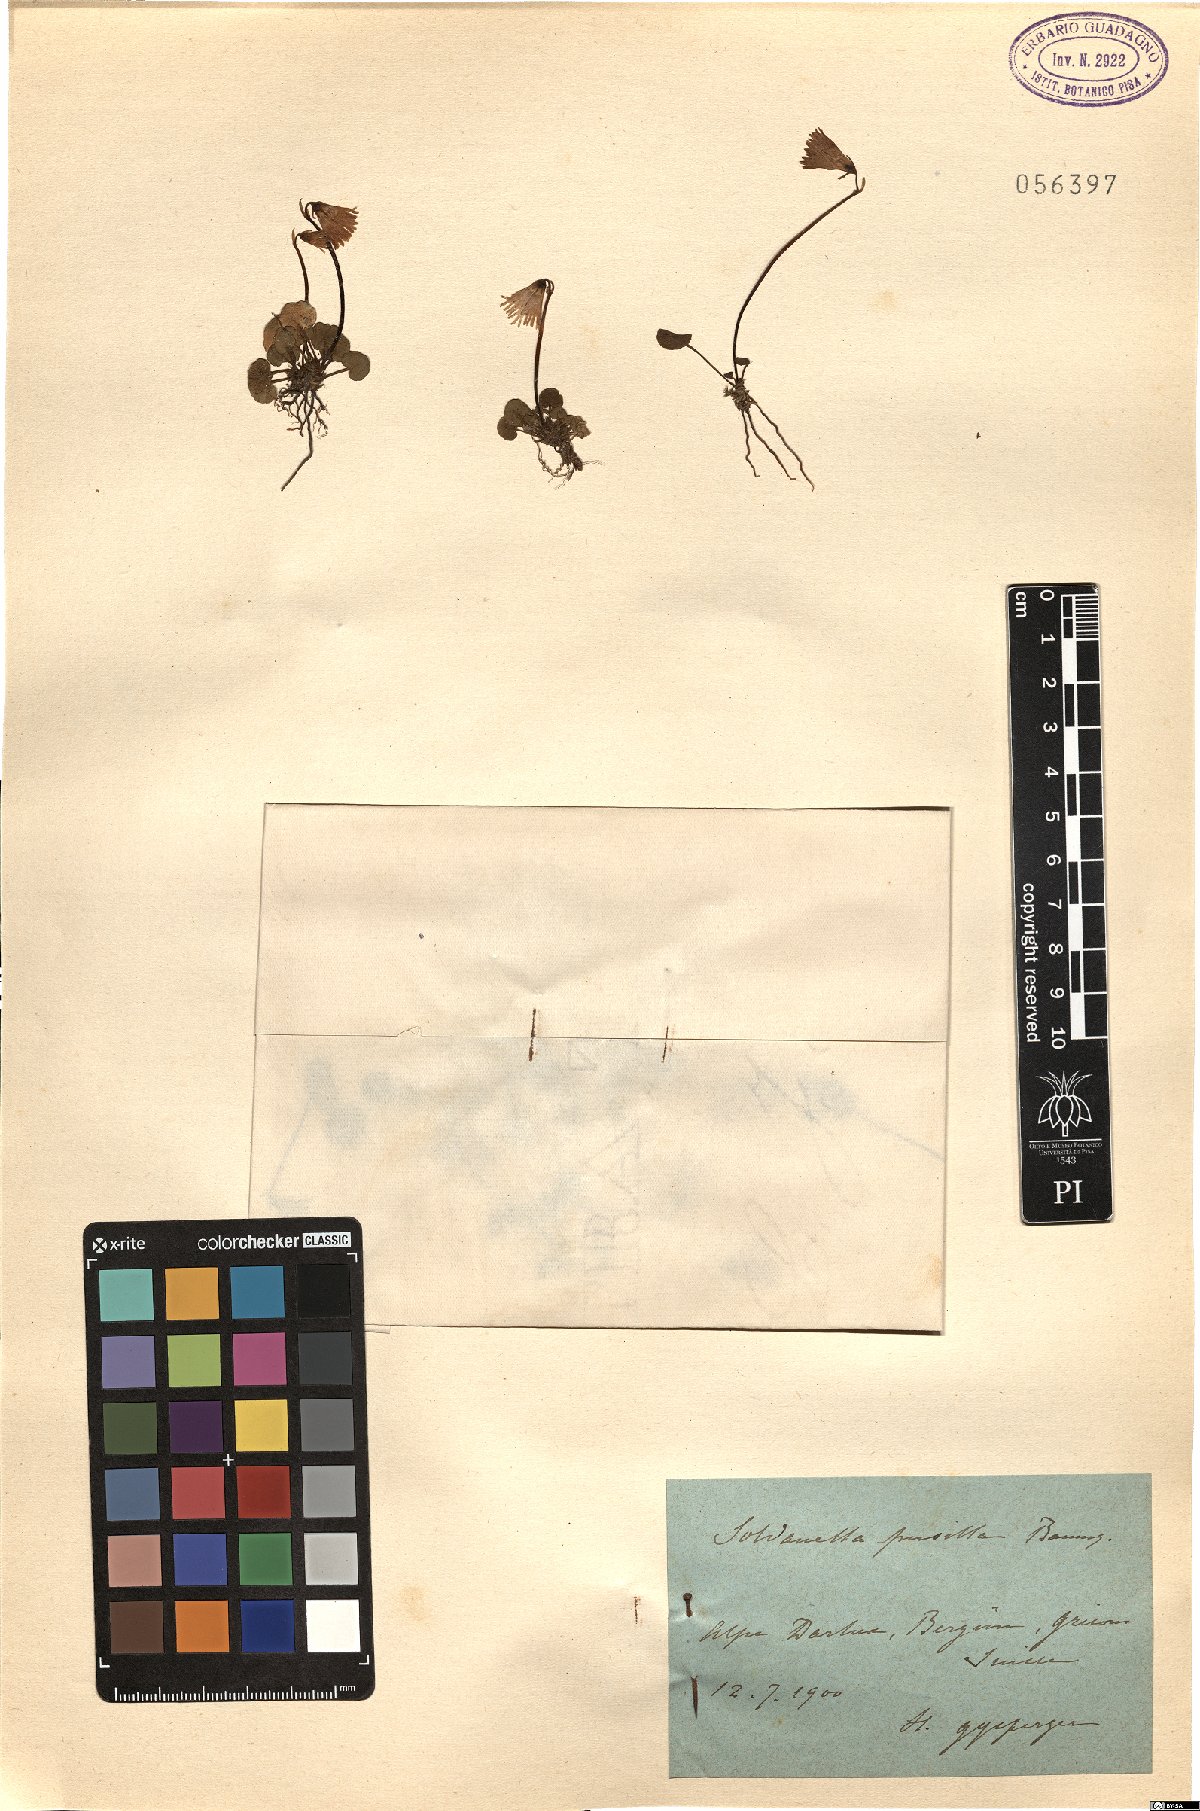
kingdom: Plantae
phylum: Tracheophyta
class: Magnoliopsida
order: Ericales
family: Primulaceae
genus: Soldanella
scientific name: Soldanella pusilla
